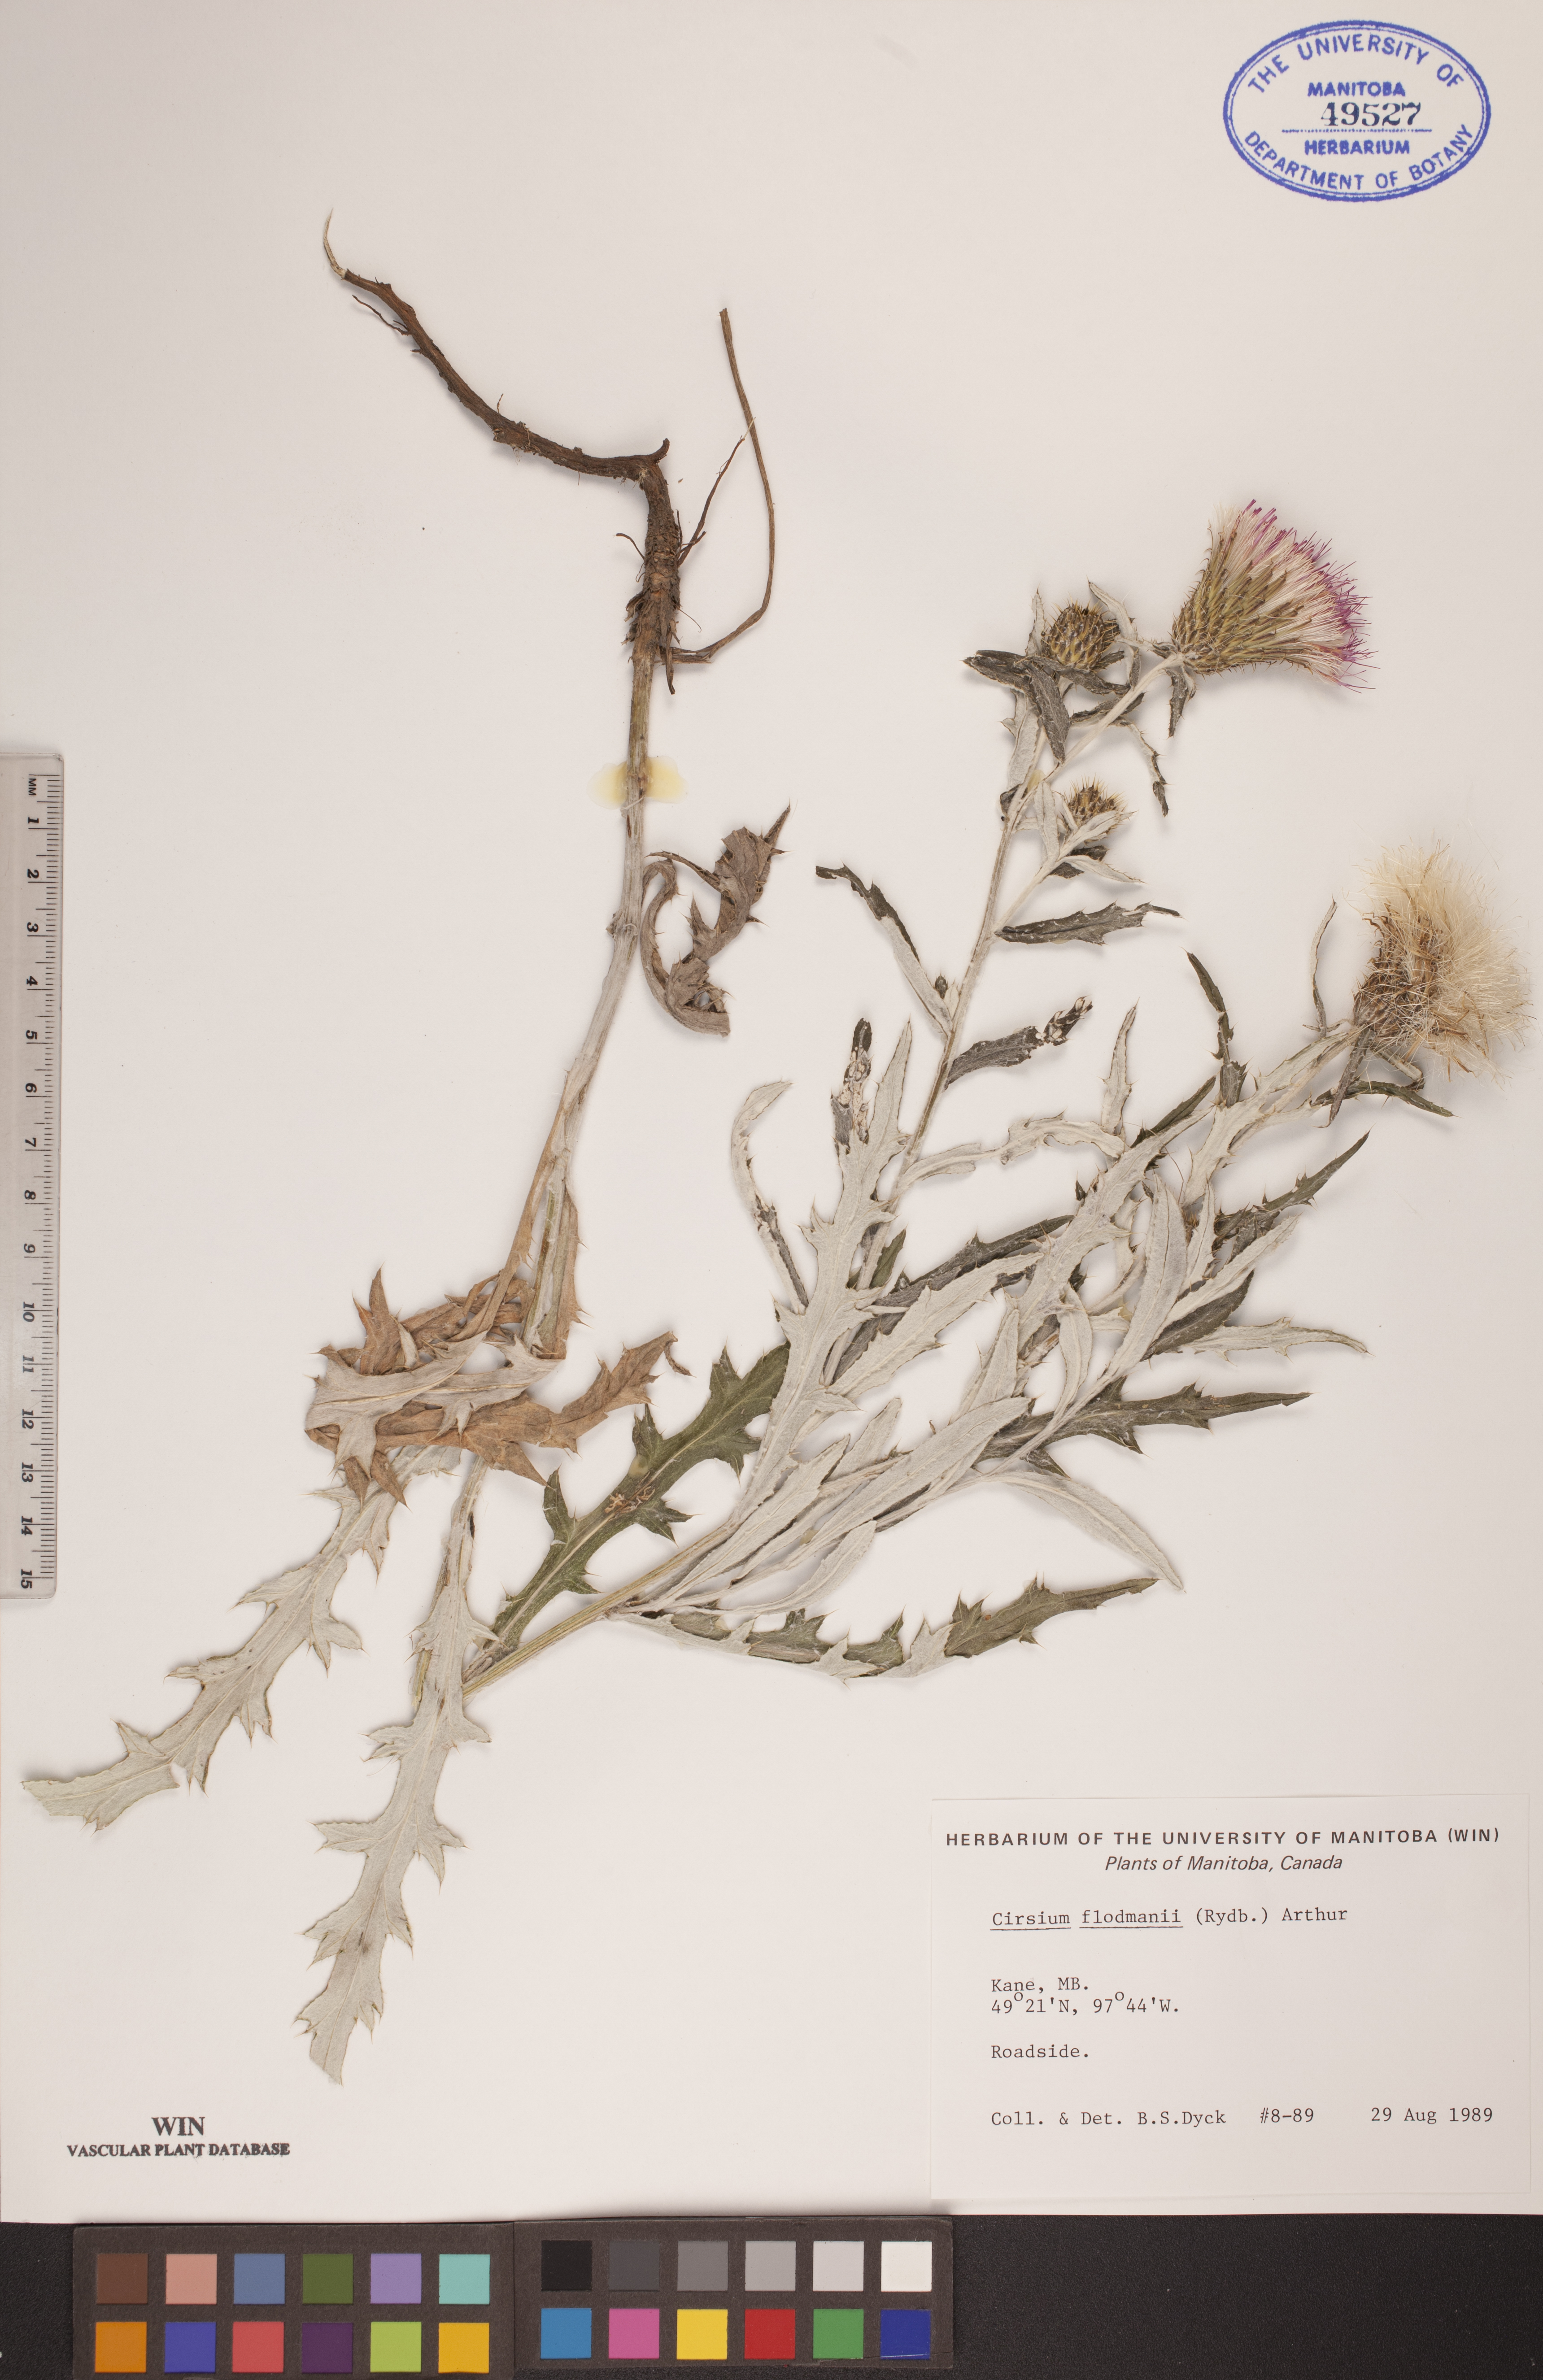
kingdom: Plantae
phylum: Tracheophyta
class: Magnoliopsida
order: Asterales
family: Asteraceae
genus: Cirsium
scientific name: Cirsium flodmanii
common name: Flodman's thistle
